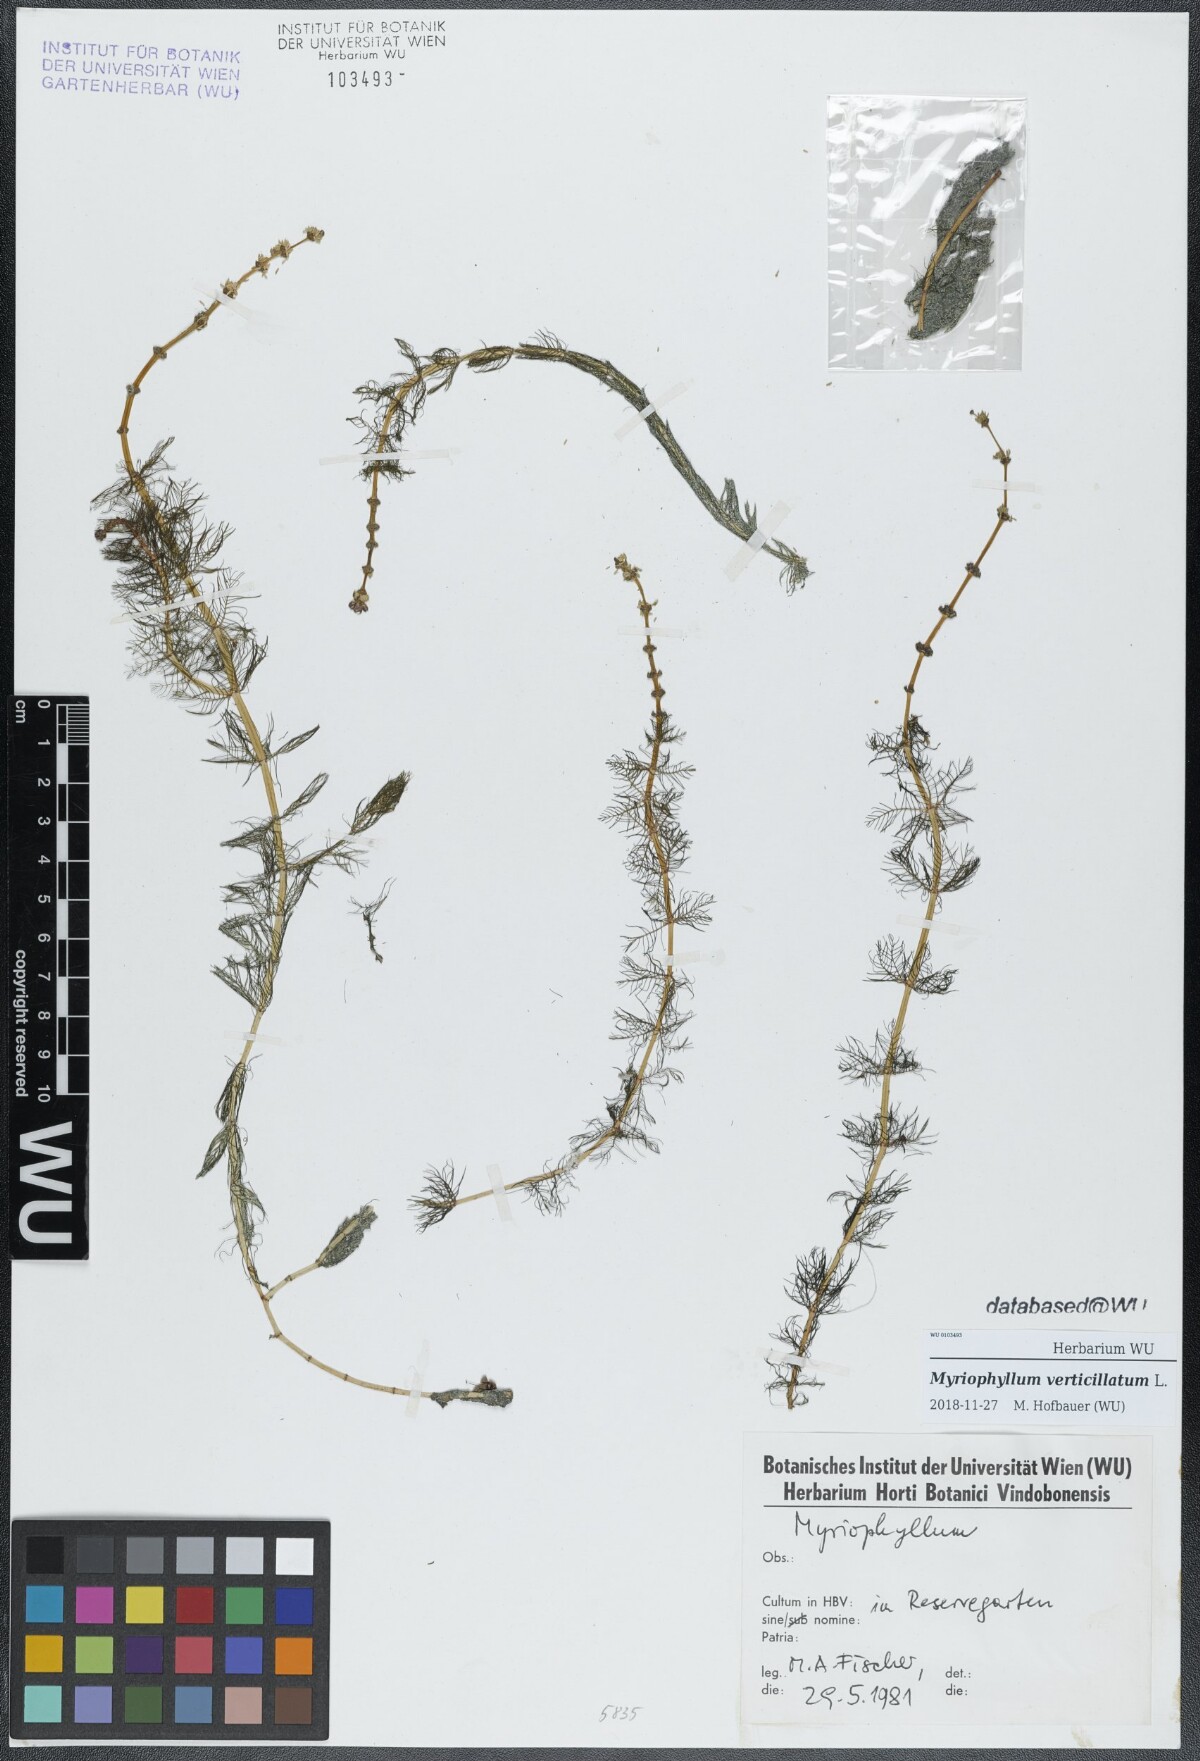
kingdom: Plantae
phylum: Tracheophyta
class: Magnoliopsida
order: Saxifragales
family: Haloragaceae
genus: Myriophyllum
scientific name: Myriophyllum verticillatum
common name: Whorled water-milfoil
